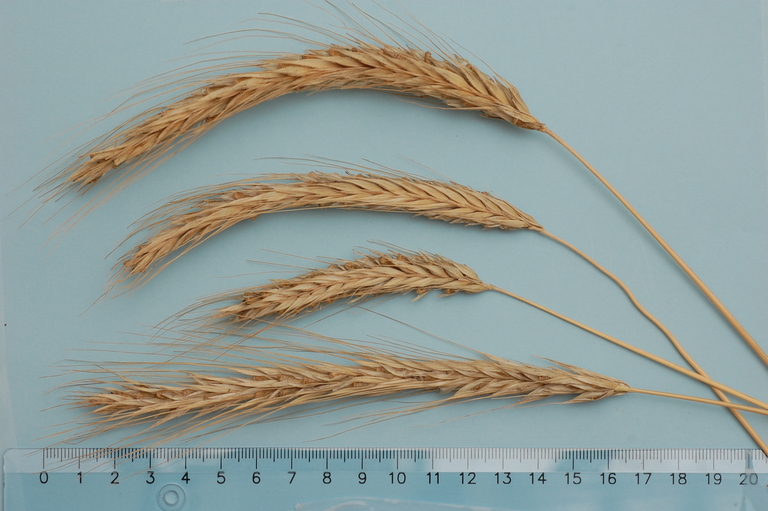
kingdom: Plantae
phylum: Tracheophyta
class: Liliopsida
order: Poales
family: Poaceae
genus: Secale
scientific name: Secale cereale
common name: Rye
